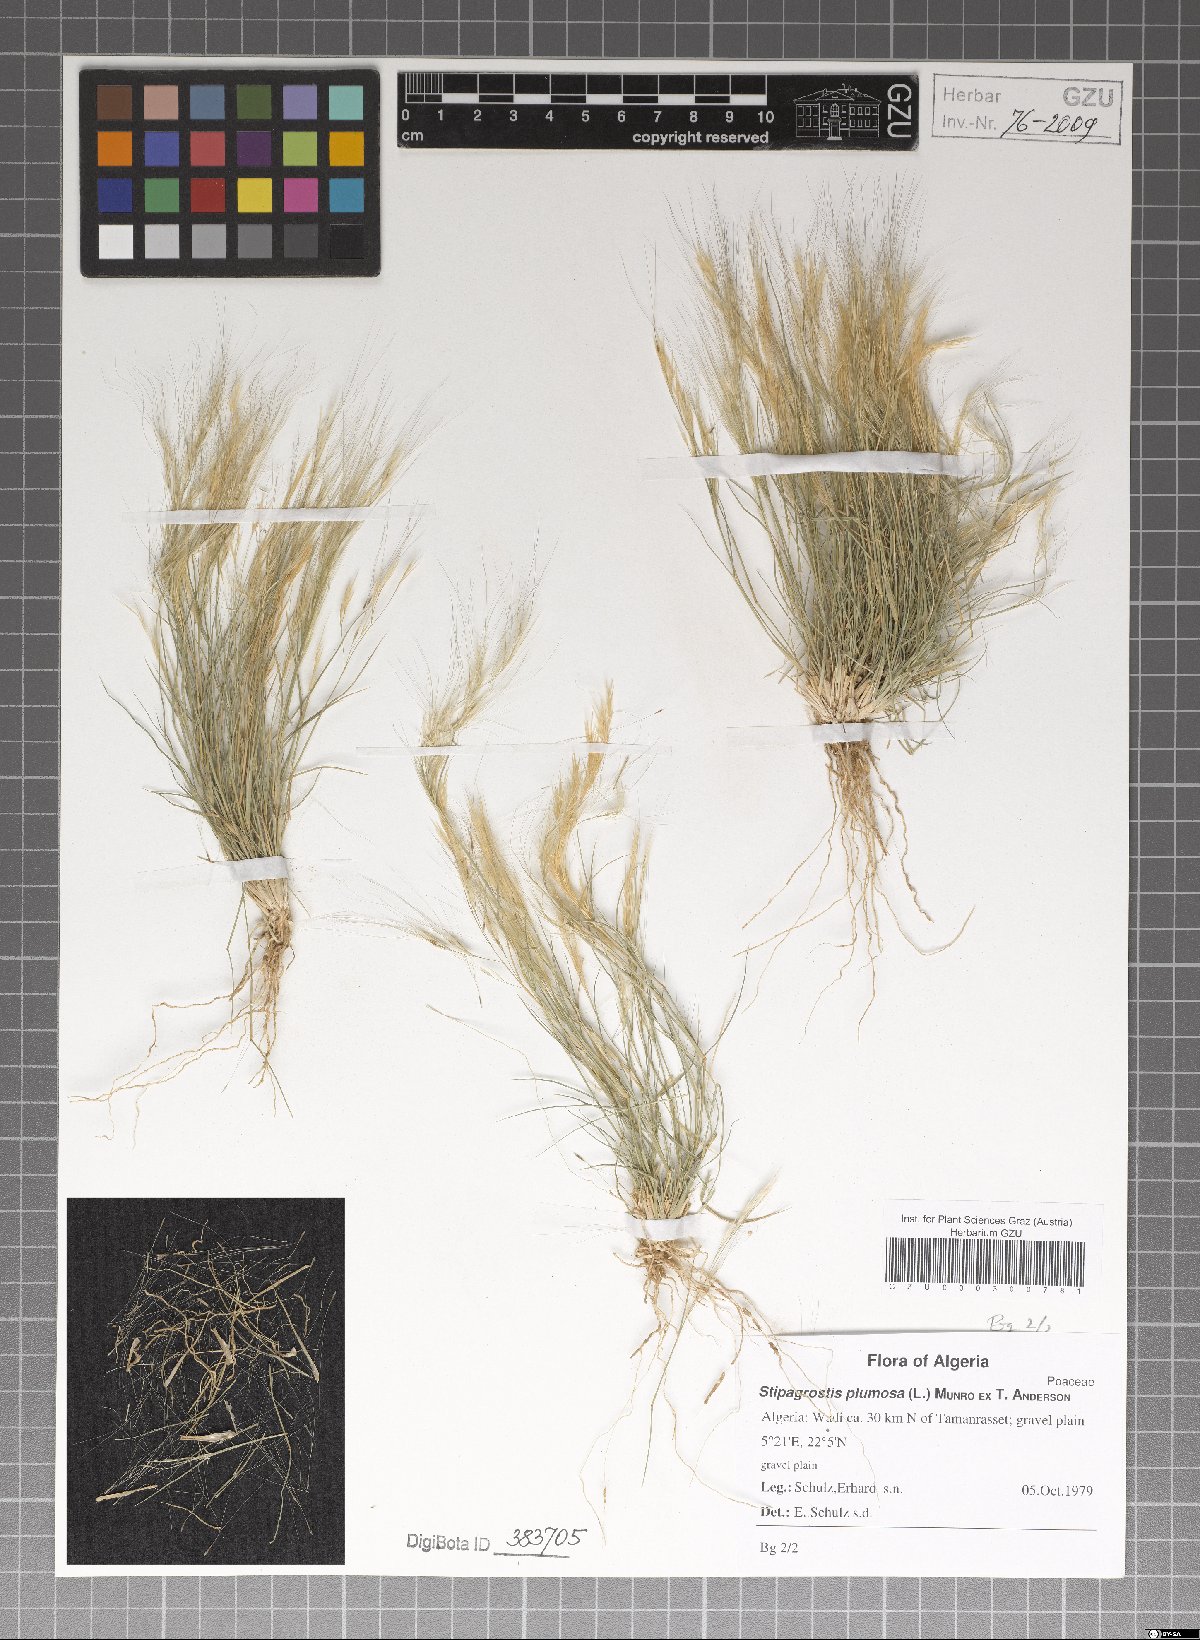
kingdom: Plantae
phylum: Tracheophyta
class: Liliopsida
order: Poales
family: Poaceae
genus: Stipagrostis
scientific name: Stipagrostis plumosa
